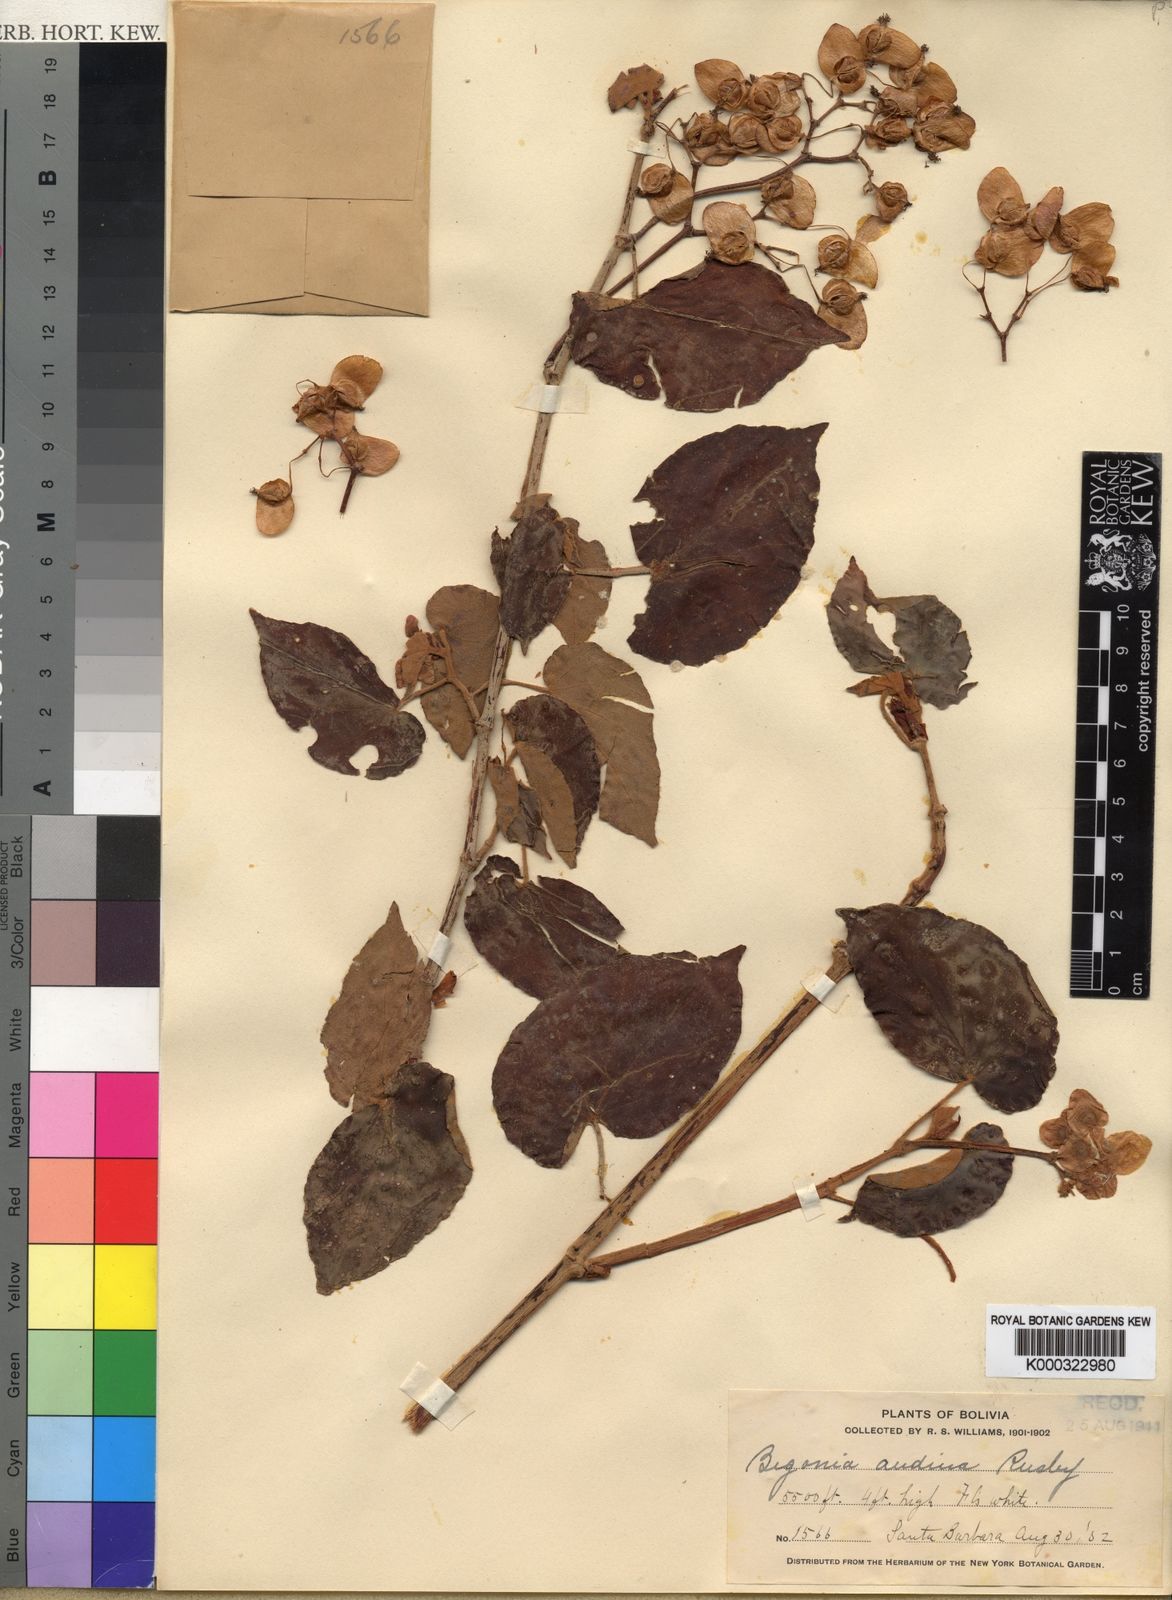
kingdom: Plantae
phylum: Tracheophyta
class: Magnoliopsida
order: Cucurbitales
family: Begoniaceae
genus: Begonia
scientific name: Begonia andina
